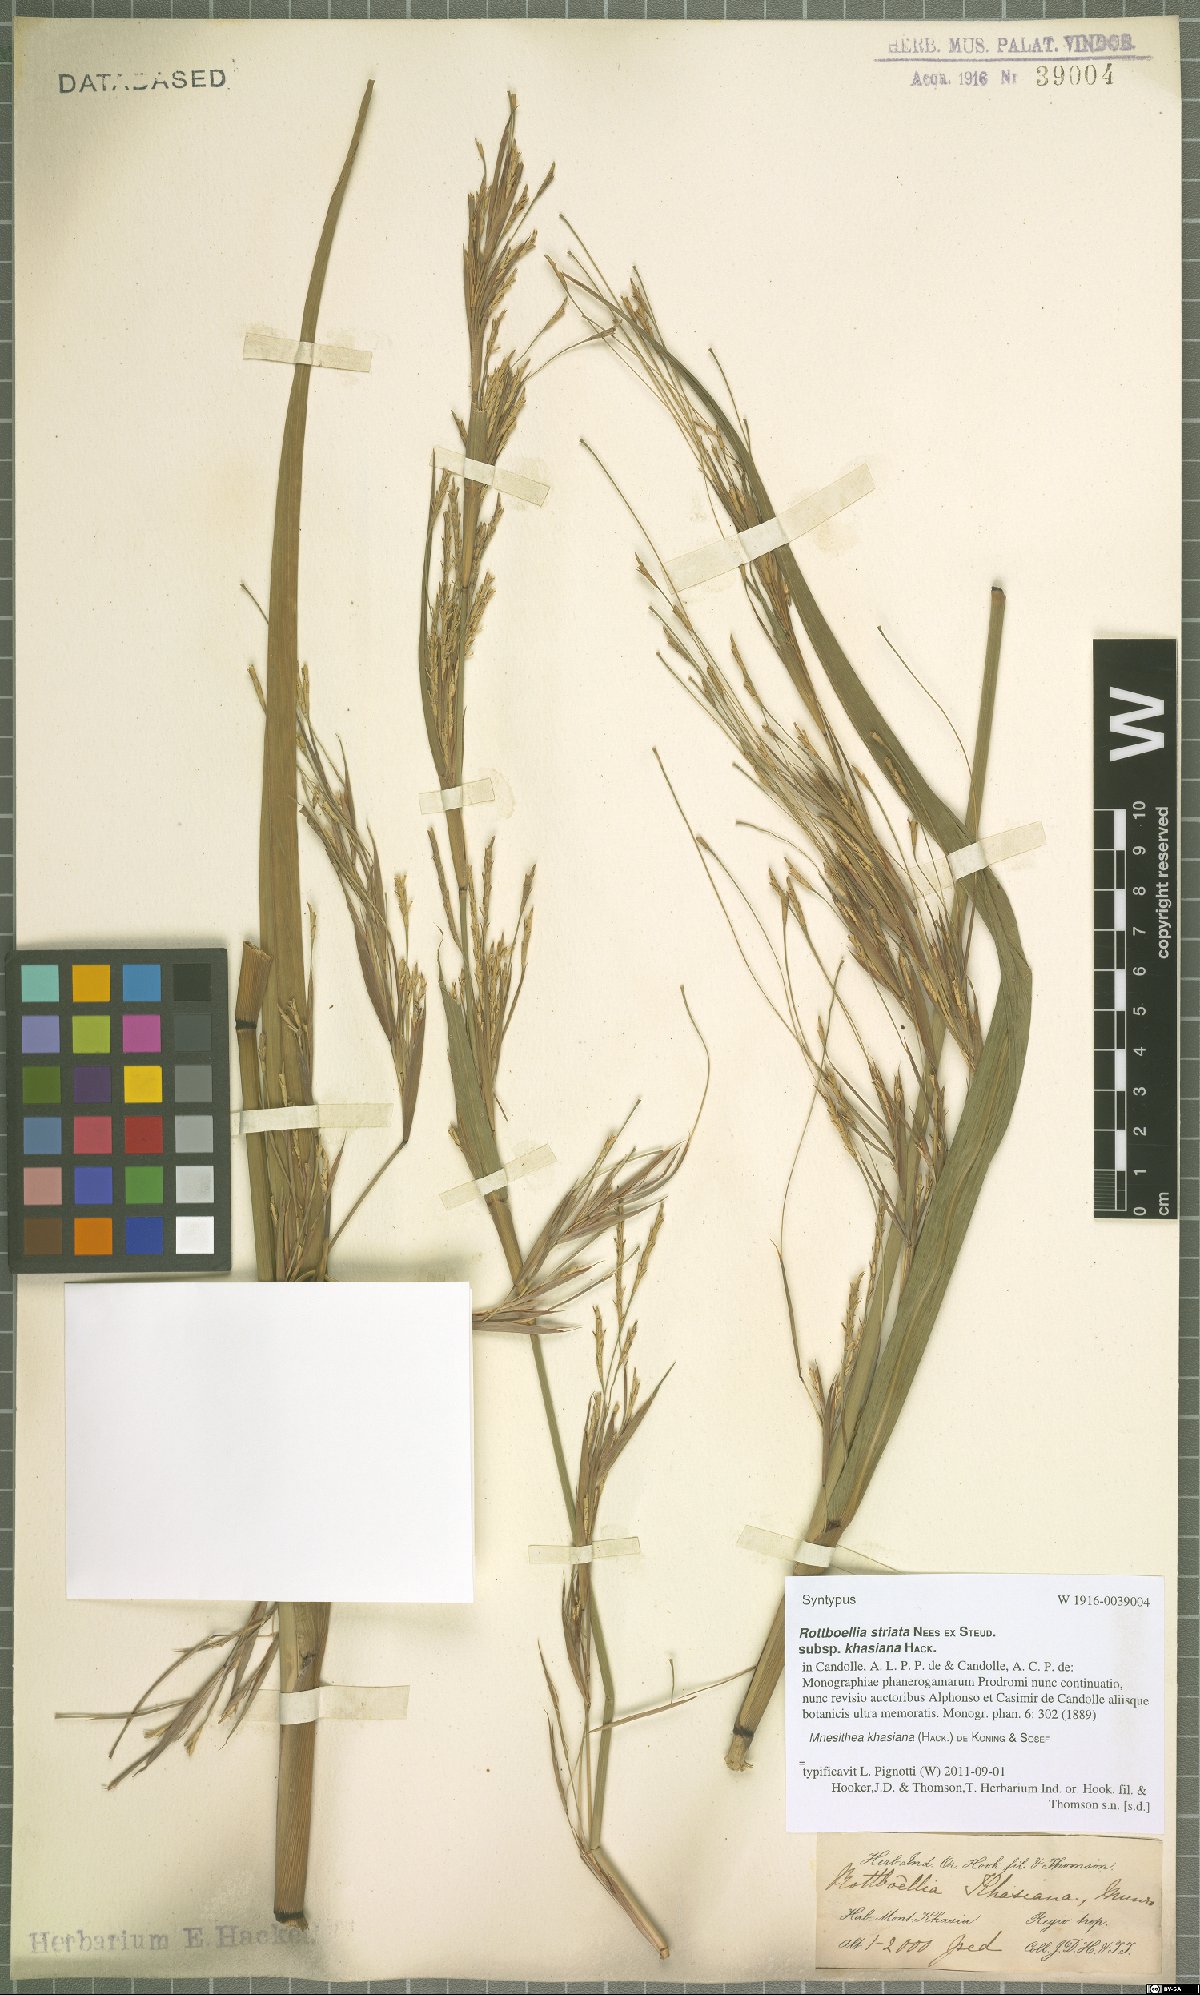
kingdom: Plantae
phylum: Tracheophyta
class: Liliopsida
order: Poales
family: Poaceae
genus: Rottboellia
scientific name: Rottboellia striata
